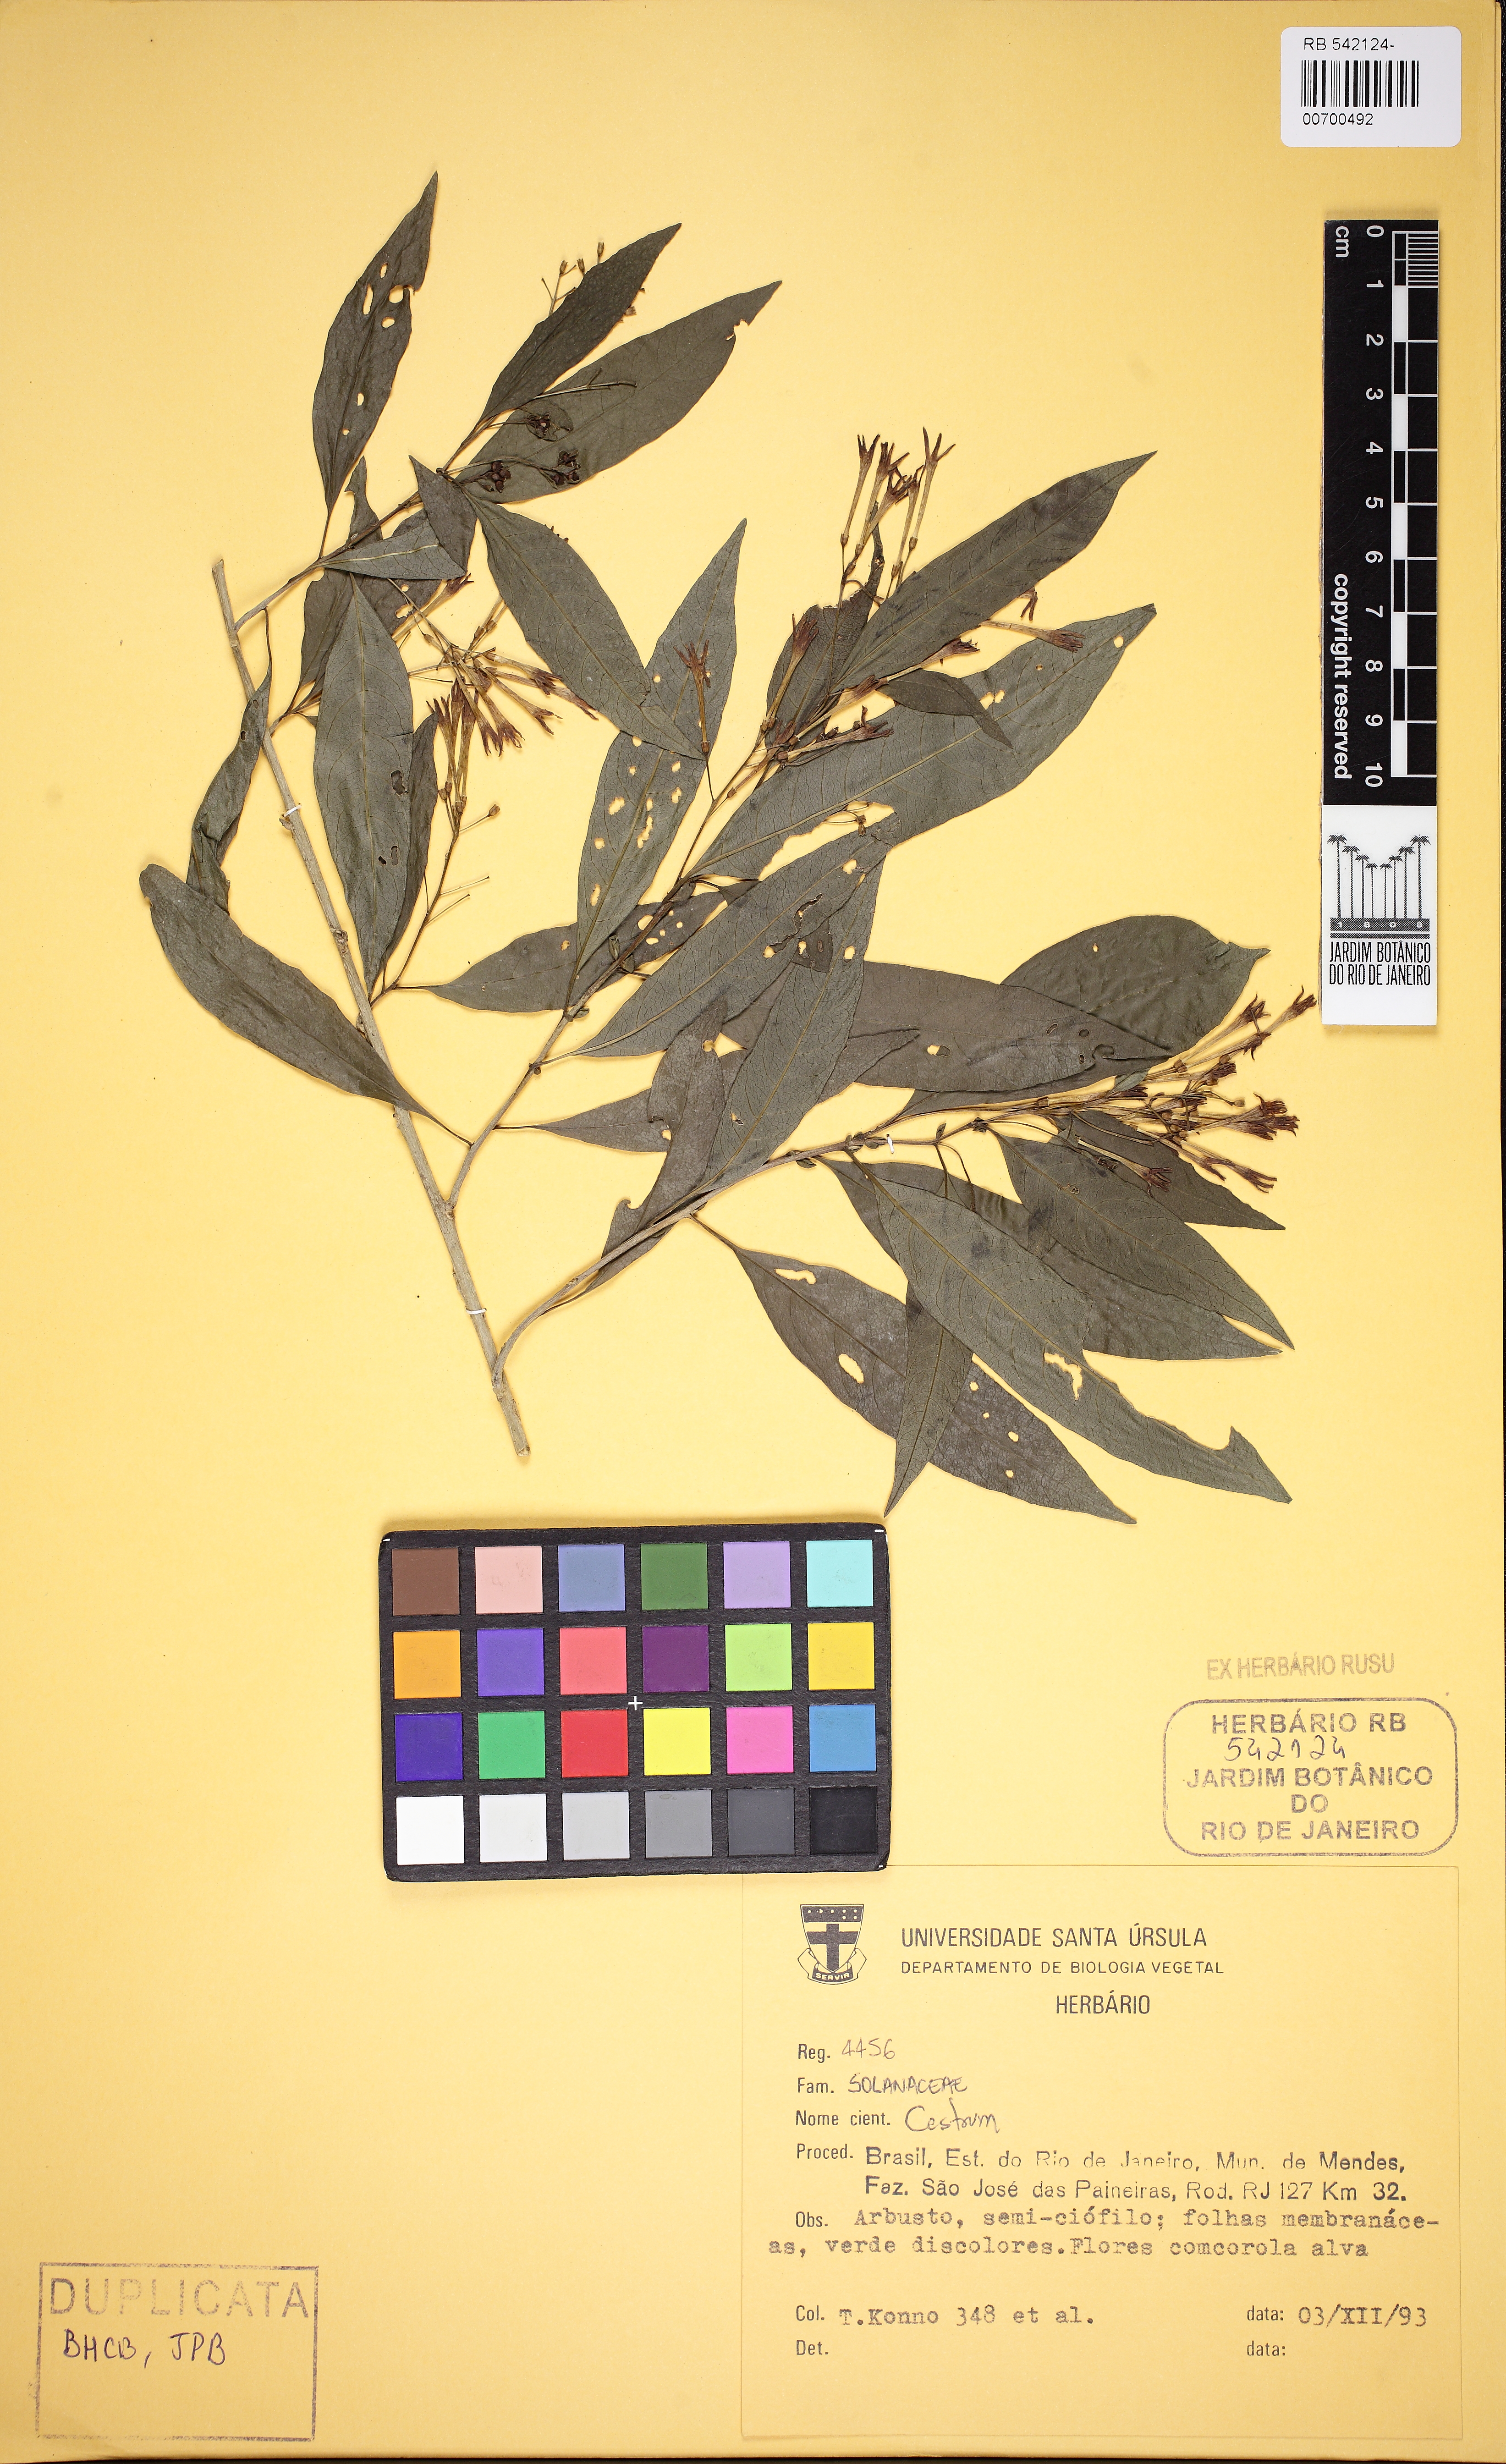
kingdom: Plantae
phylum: Tracheophyta
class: Magnoliopsida
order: Solanales
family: Solanaceae
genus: Cestrum
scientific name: Cestrum
